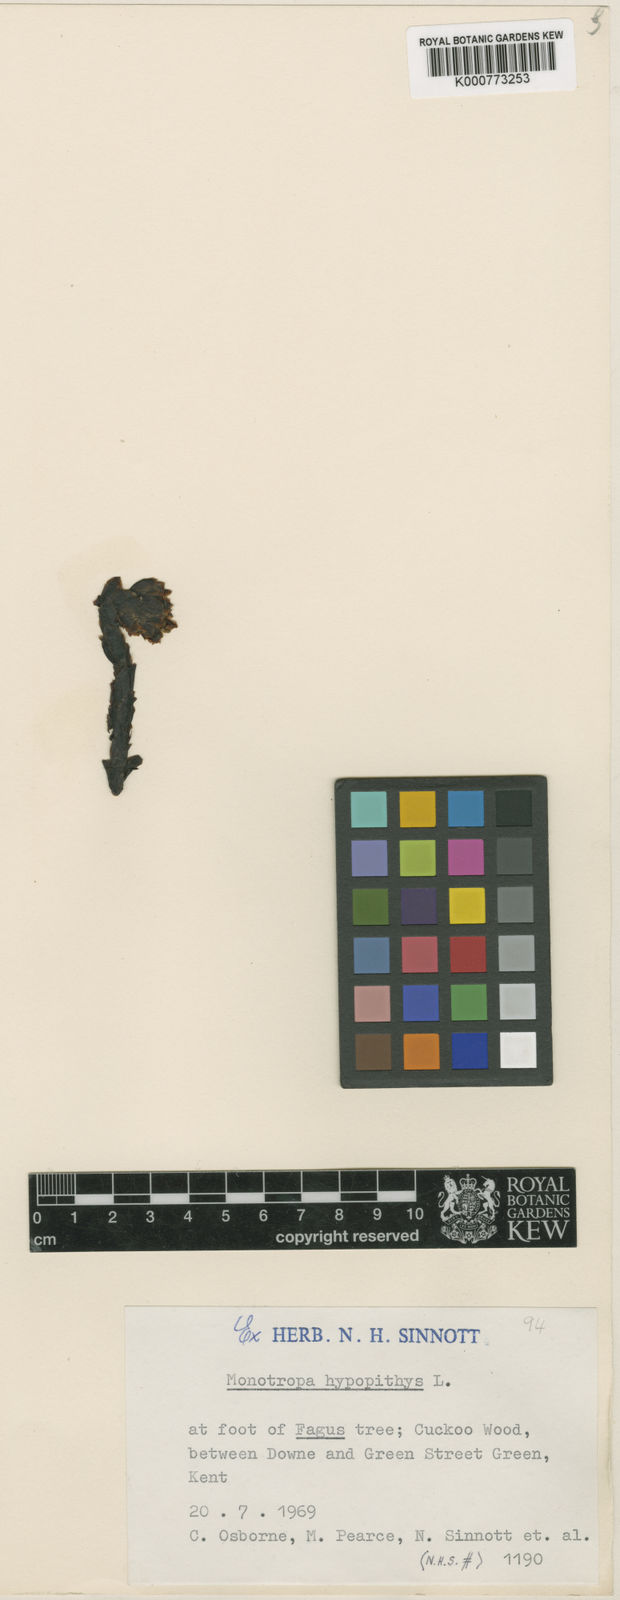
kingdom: Plantae
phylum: Tracheophyta
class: Magnoliopsida
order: Ericales
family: Ericaceae
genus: Monotropa
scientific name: Monotropa
